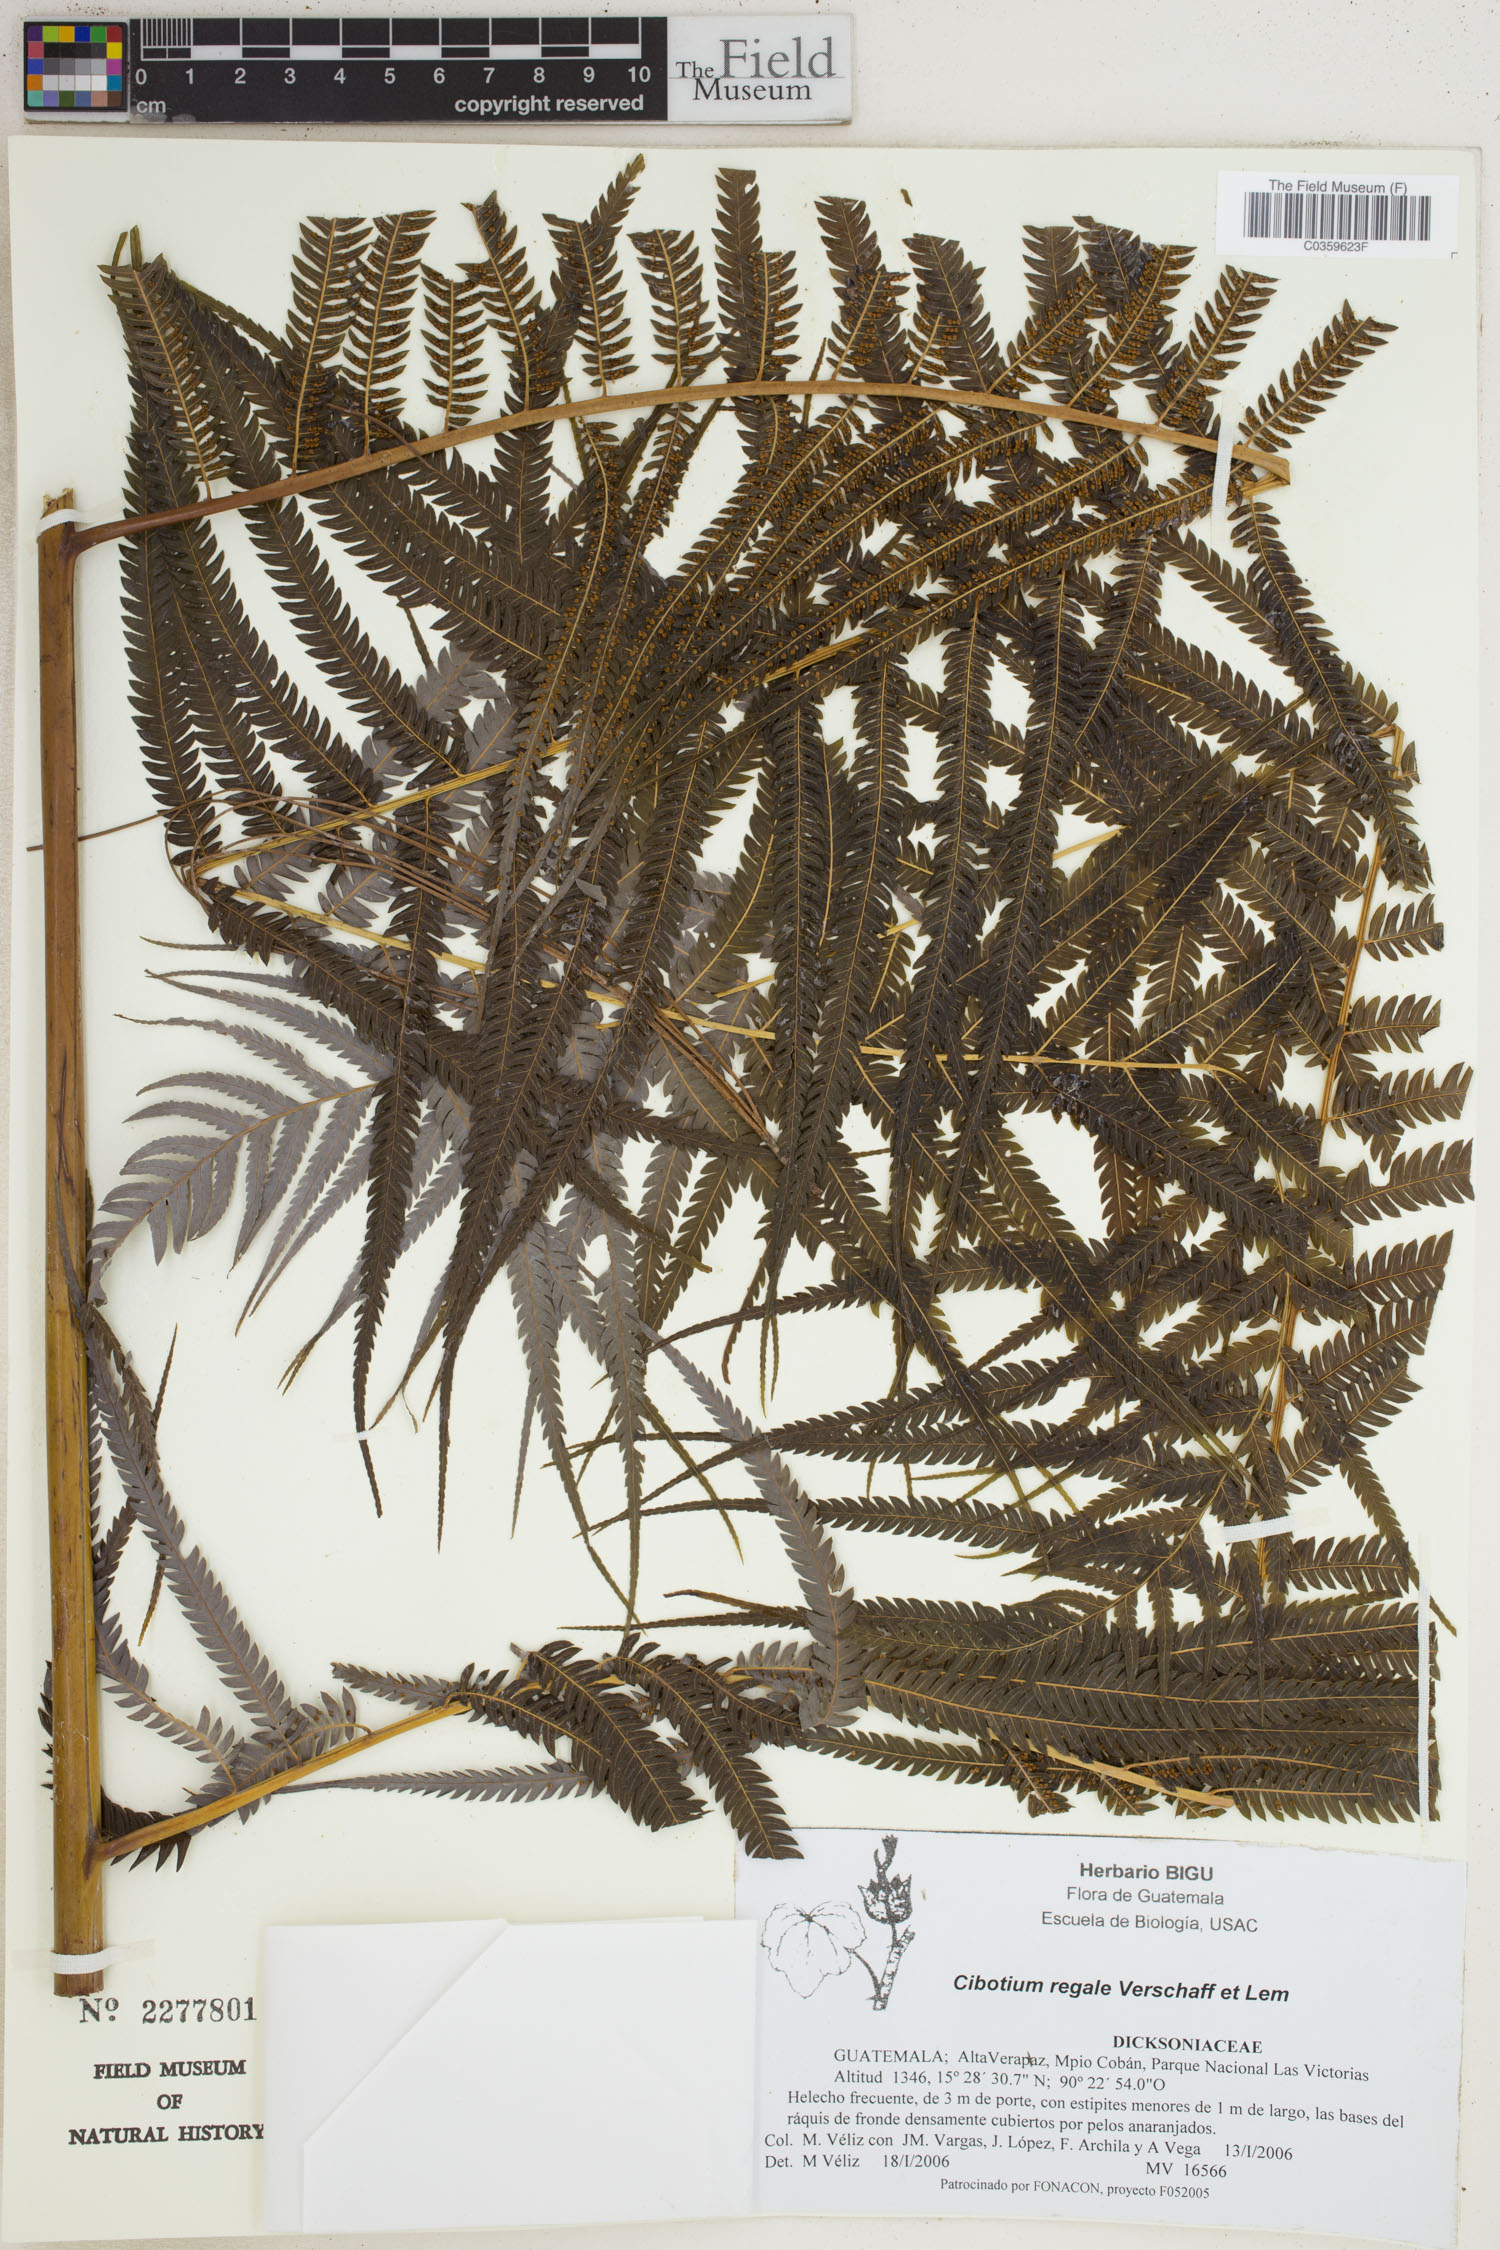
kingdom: Plantae
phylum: Tracheophyta
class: Polypodiopsida
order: Cyatheales
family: Cibotiaceae
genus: Cibotium
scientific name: Cibotium regale
